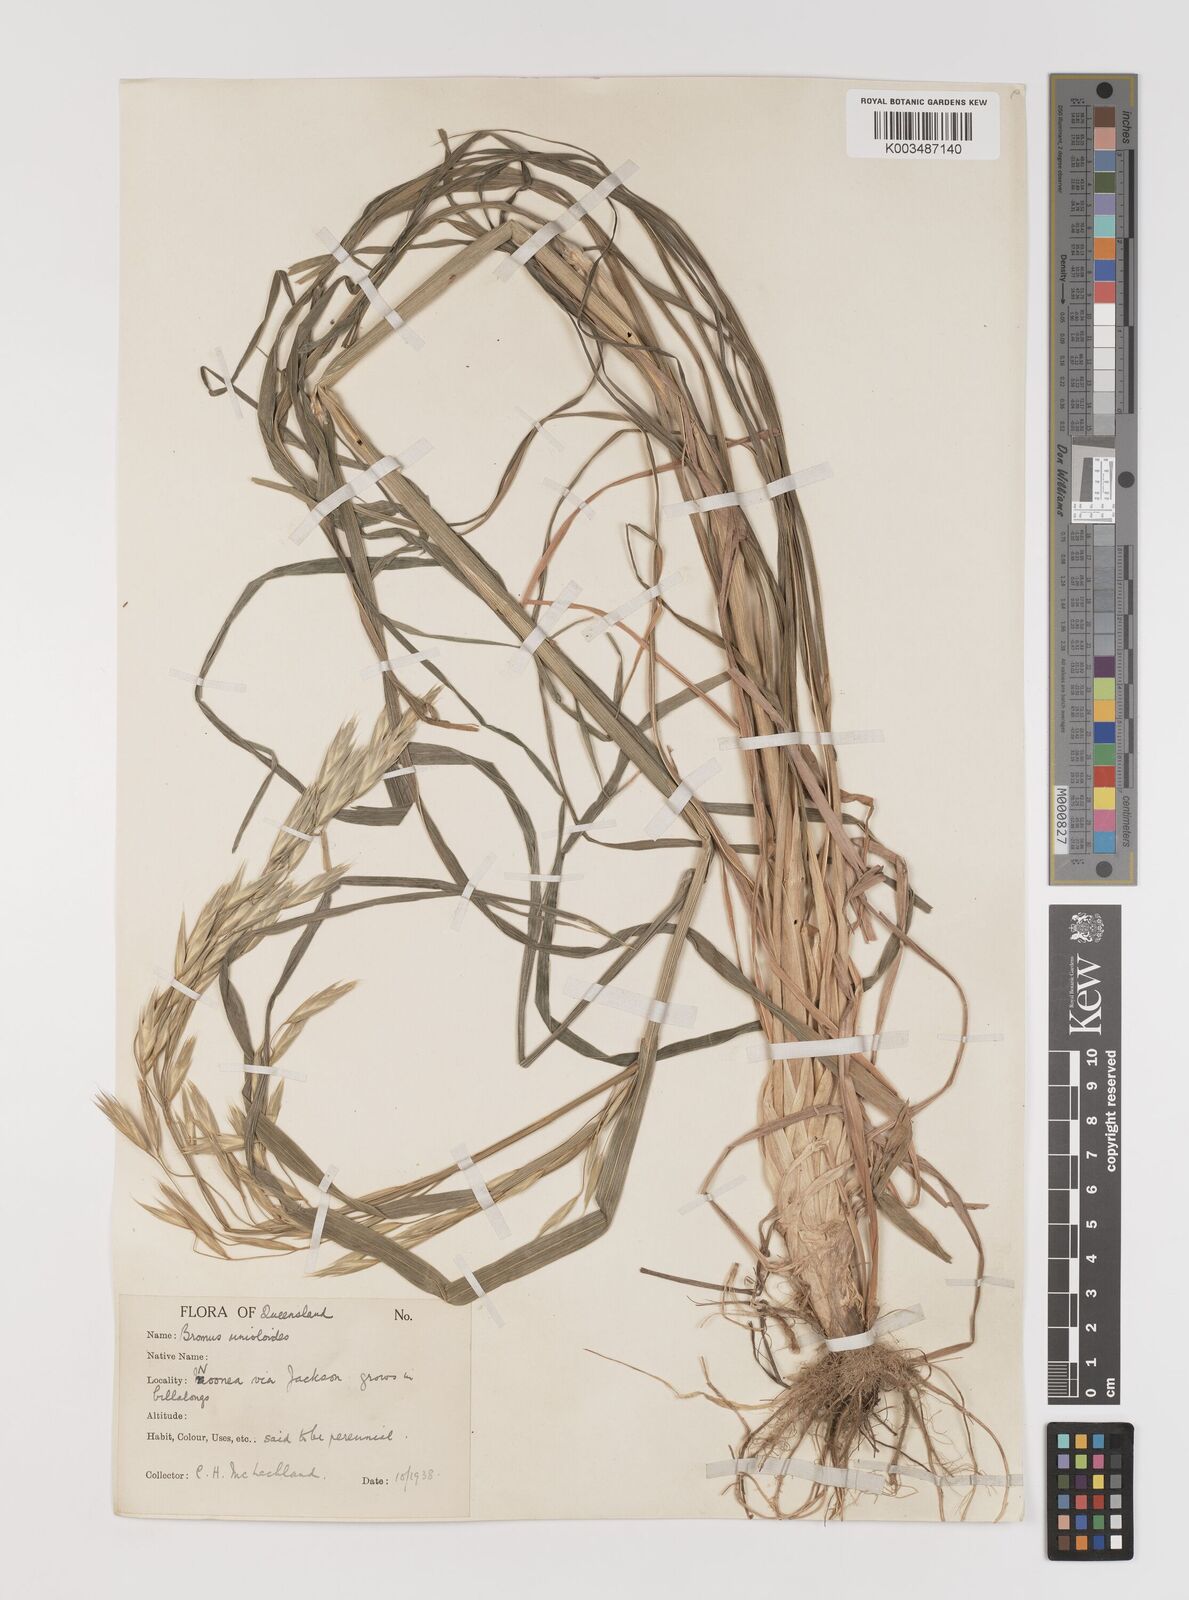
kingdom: Plantae
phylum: Tracheophyta
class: Liliopsida
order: Poales
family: Poaceae
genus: Bromus
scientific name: Bromus catharticus
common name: Rescuegrass
